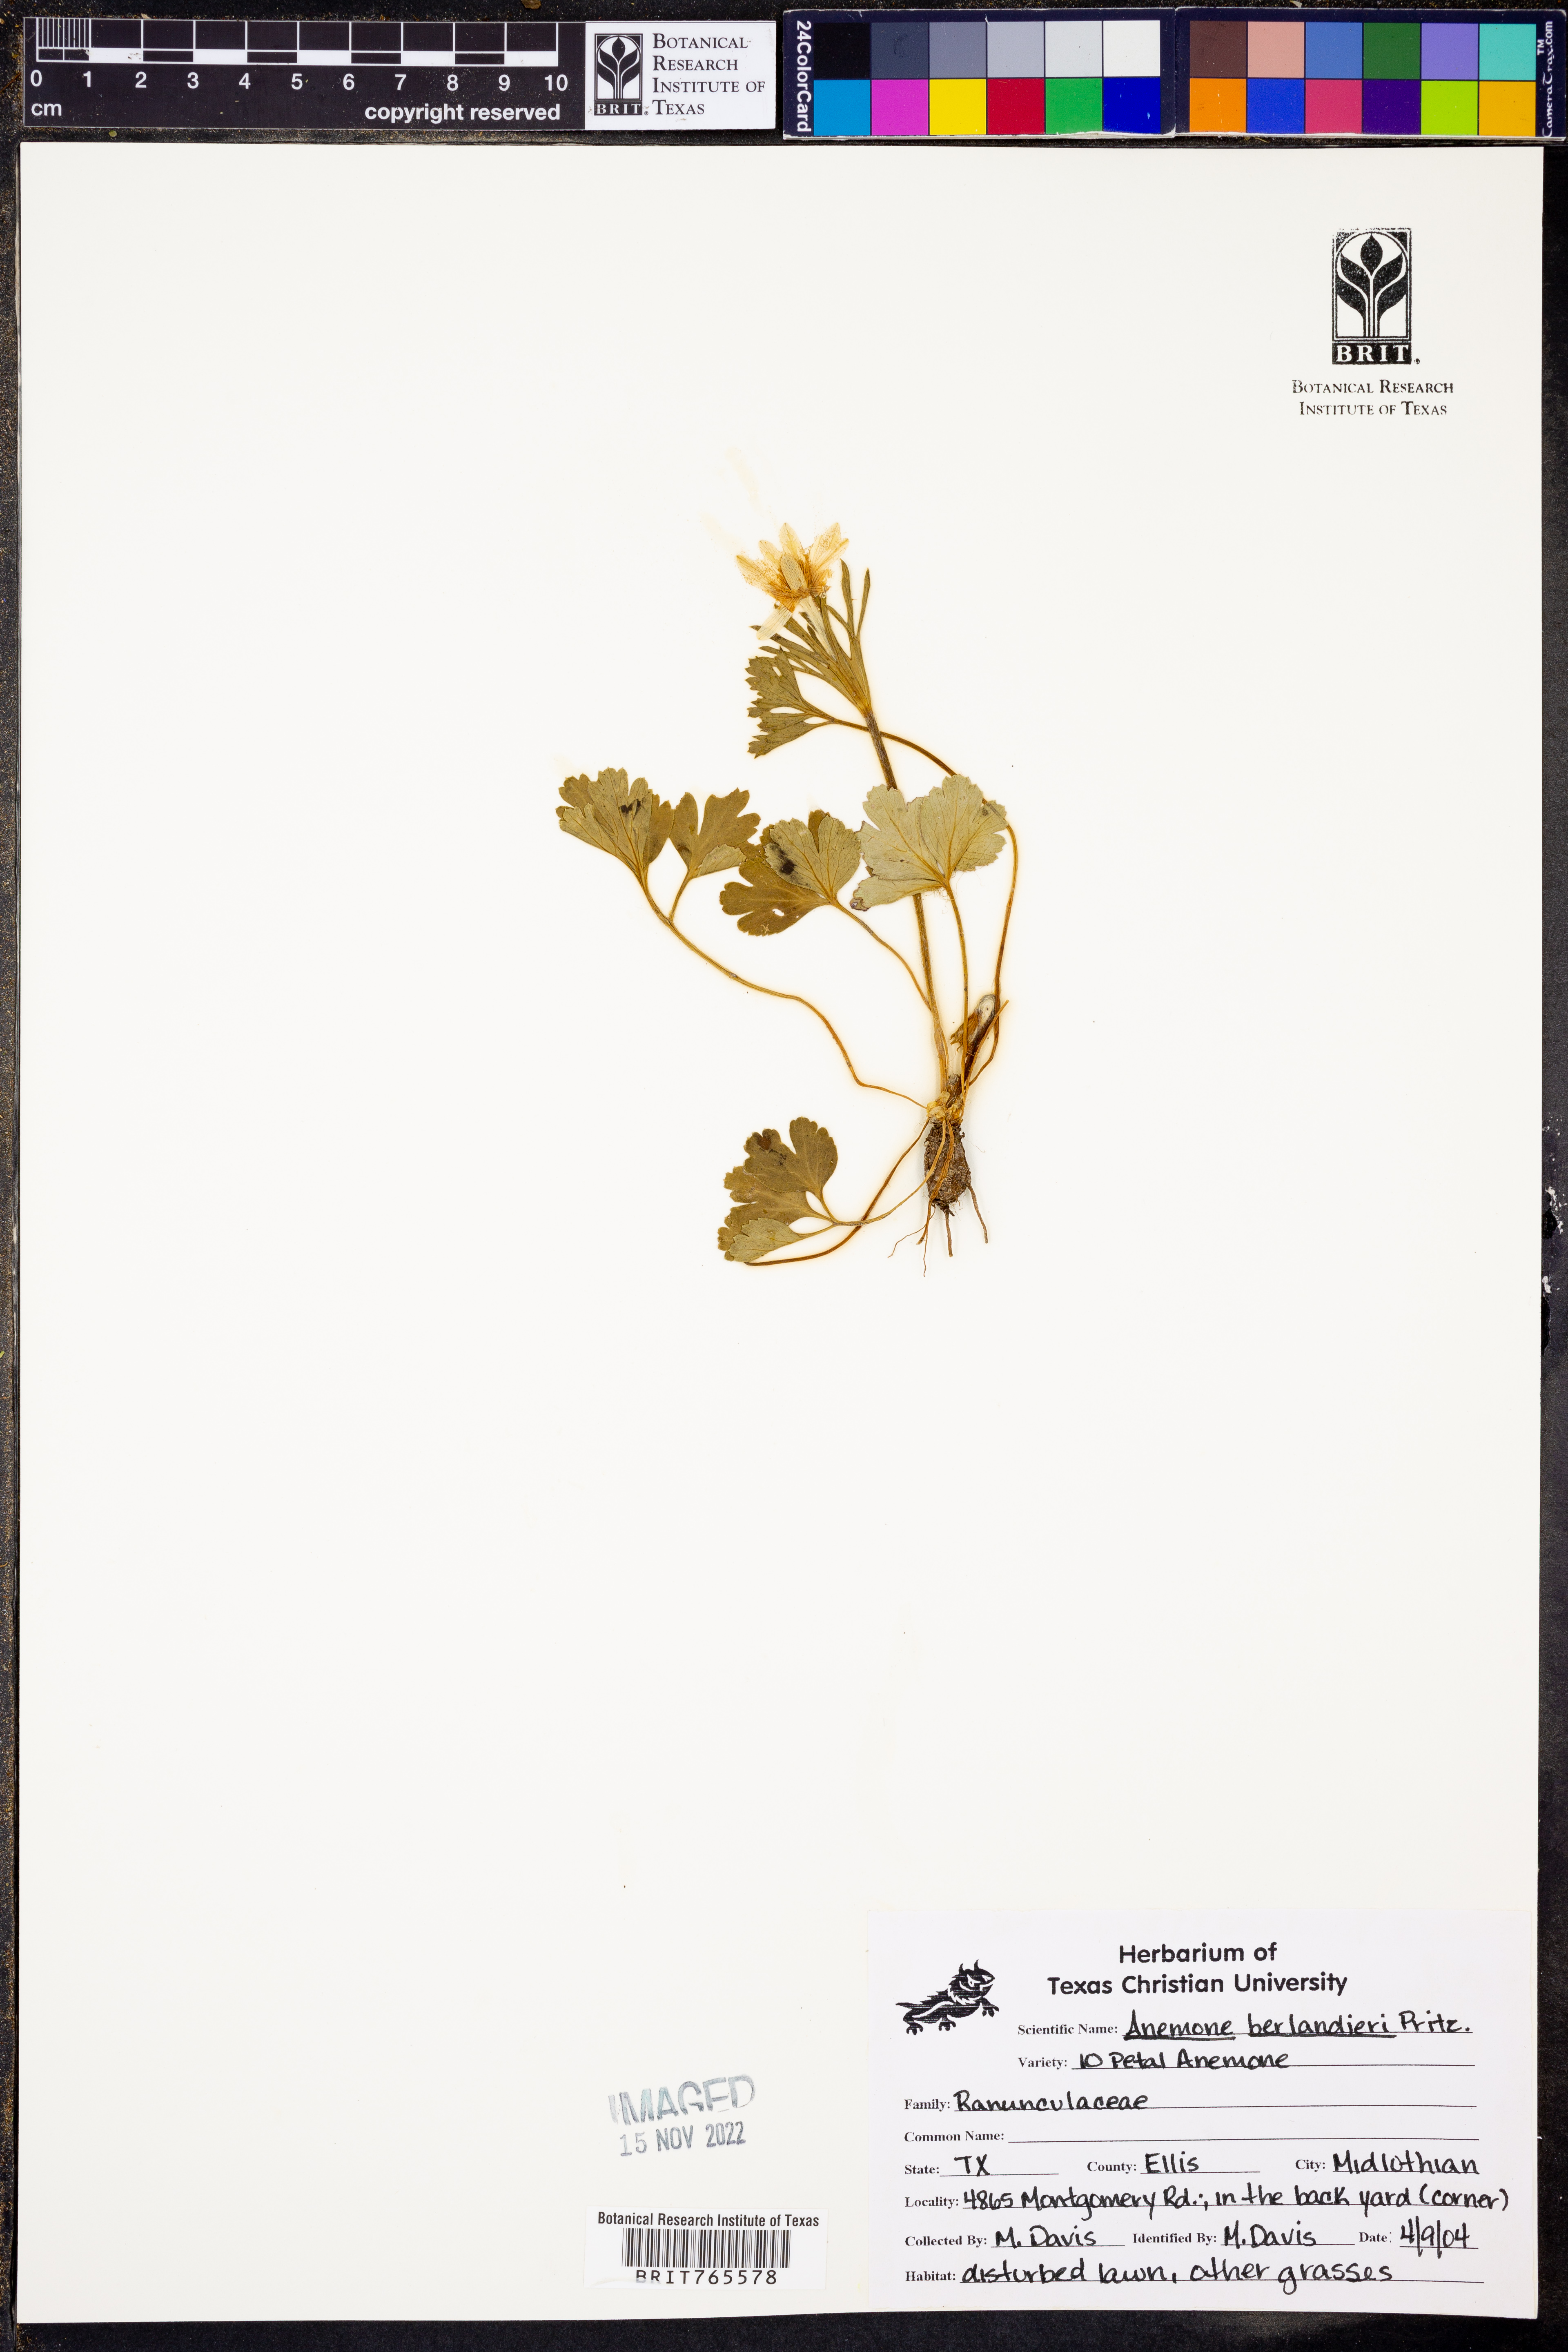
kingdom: Plantae
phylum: Tracheophyta
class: Magnoliopsida
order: Ranunculales
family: Ranunculaceae
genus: Anemone
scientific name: Anemone berlandieri
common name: Ten-petal anemone
